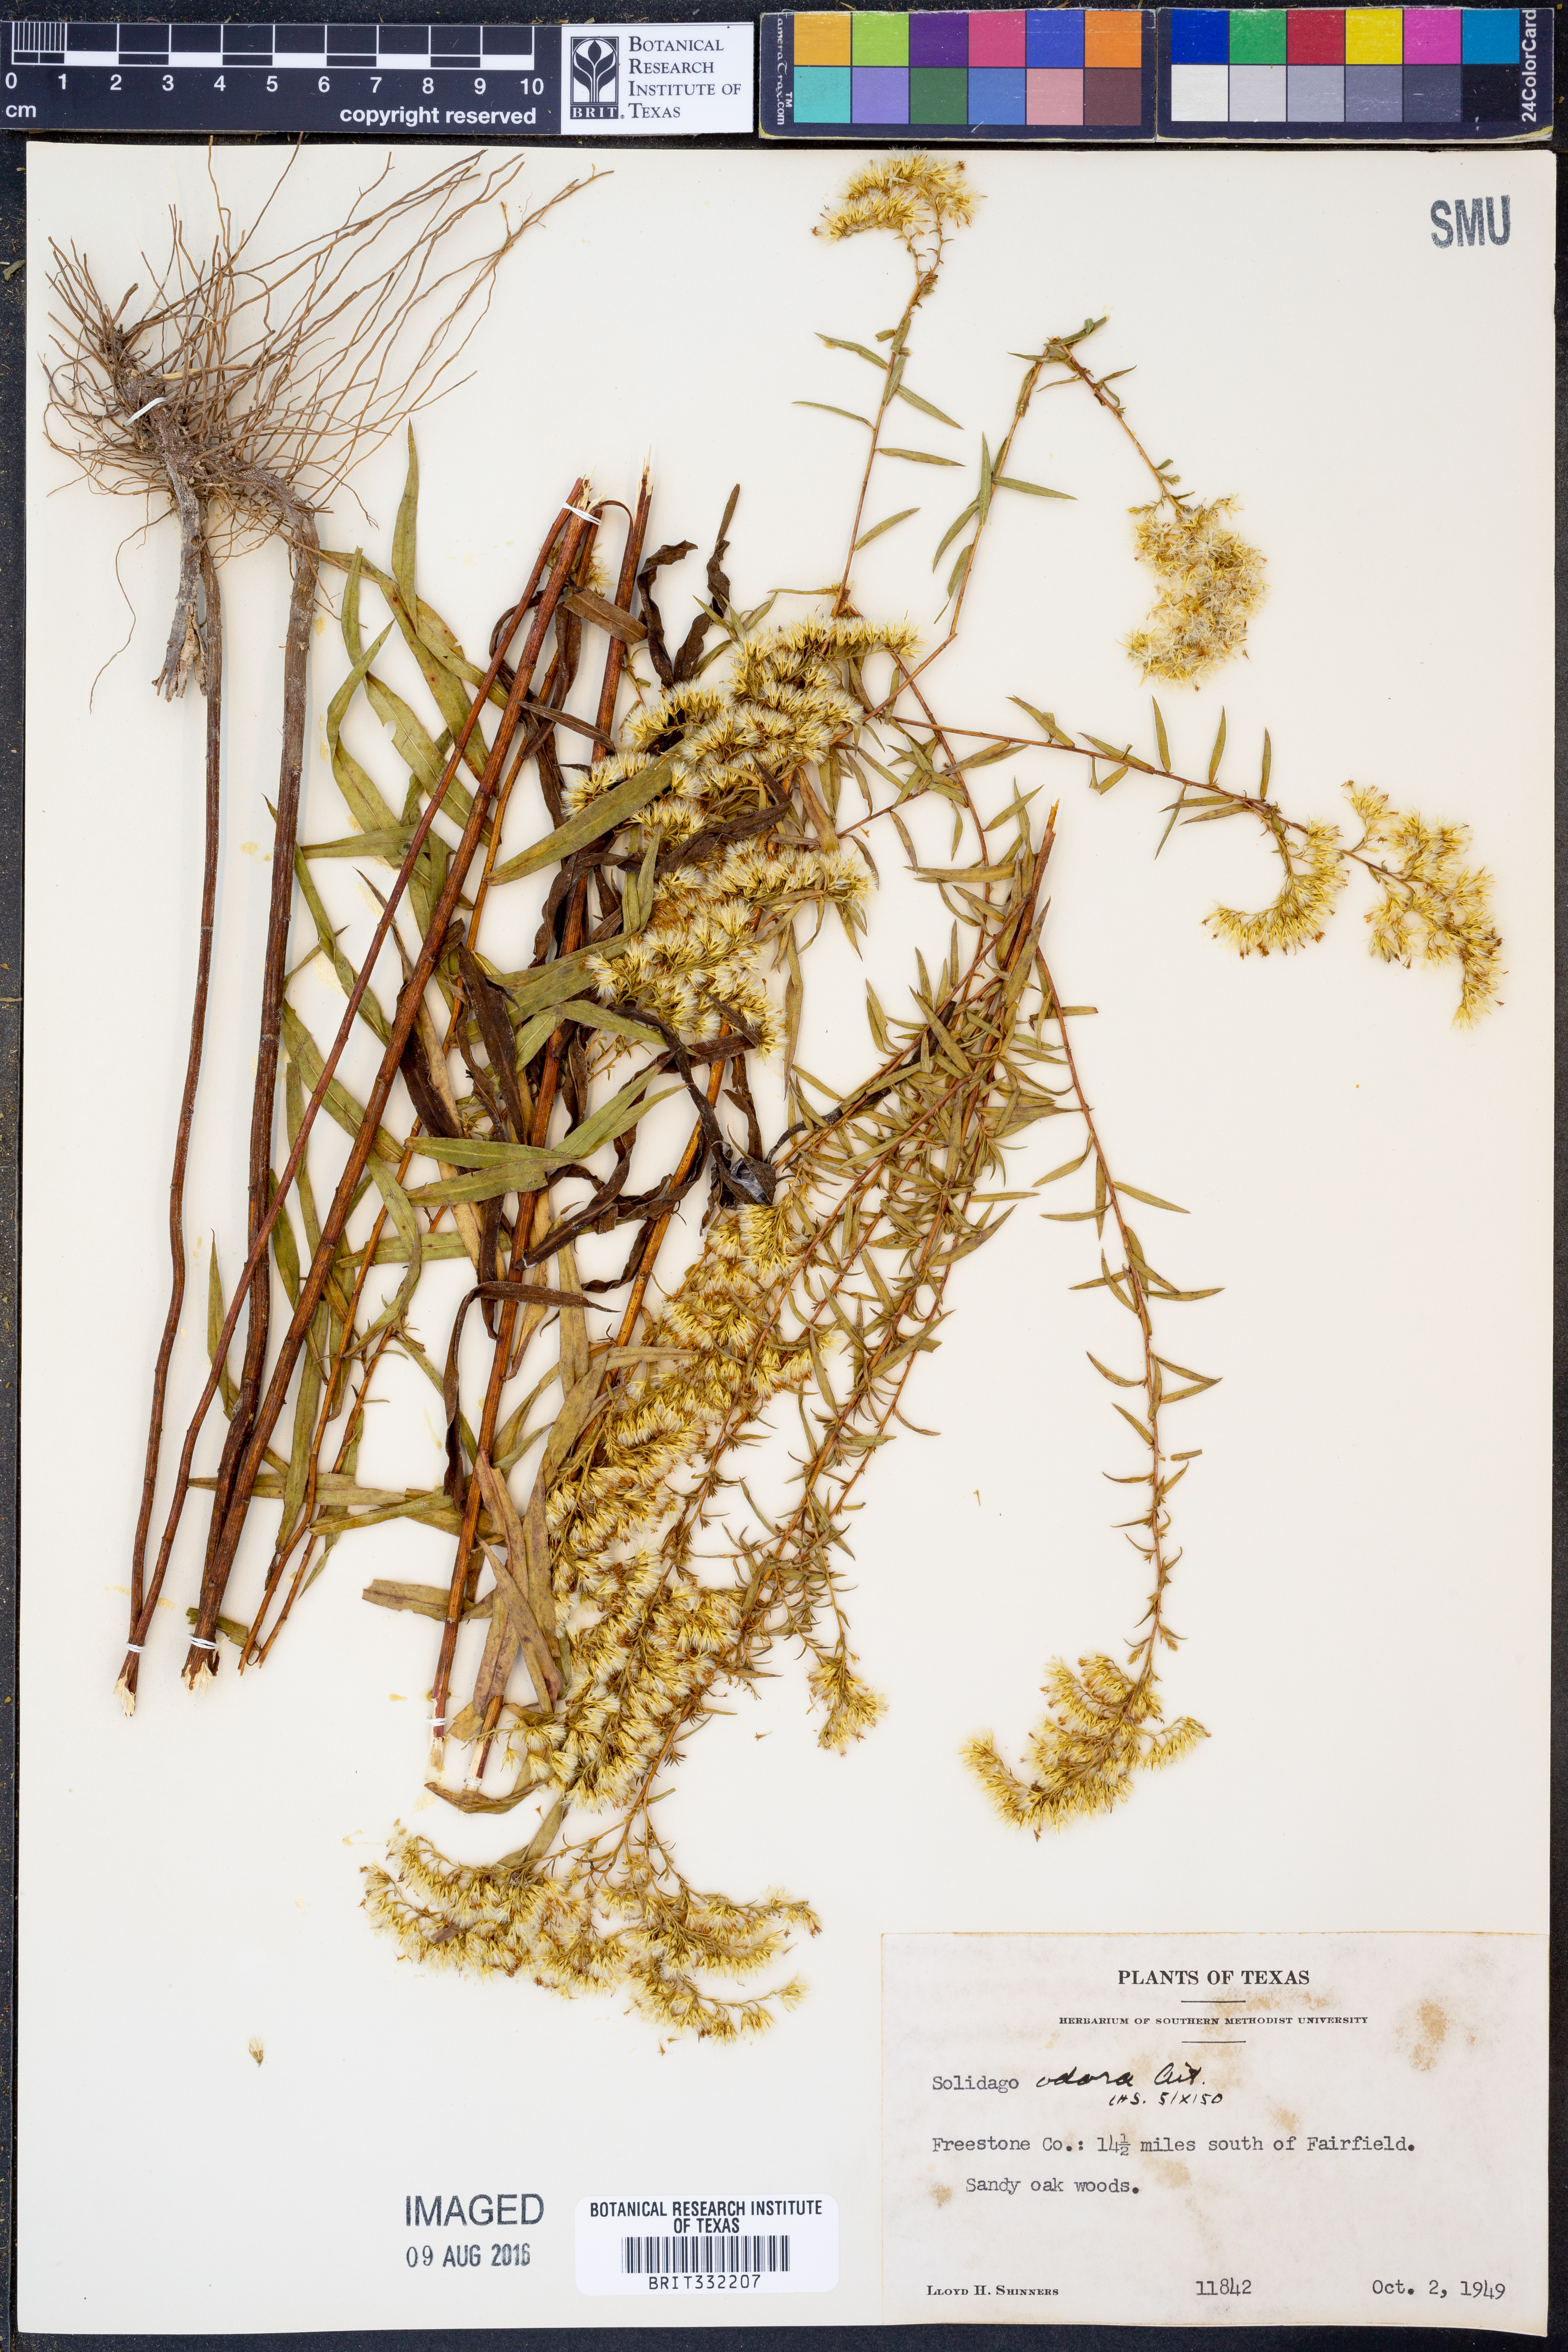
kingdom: Plantae
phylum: Tracheophyta
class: Magnoliopsida
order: Asterales
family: Asteraceae
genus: Solidago
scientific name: Solidago odora
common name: Anise-scented goldenrod
